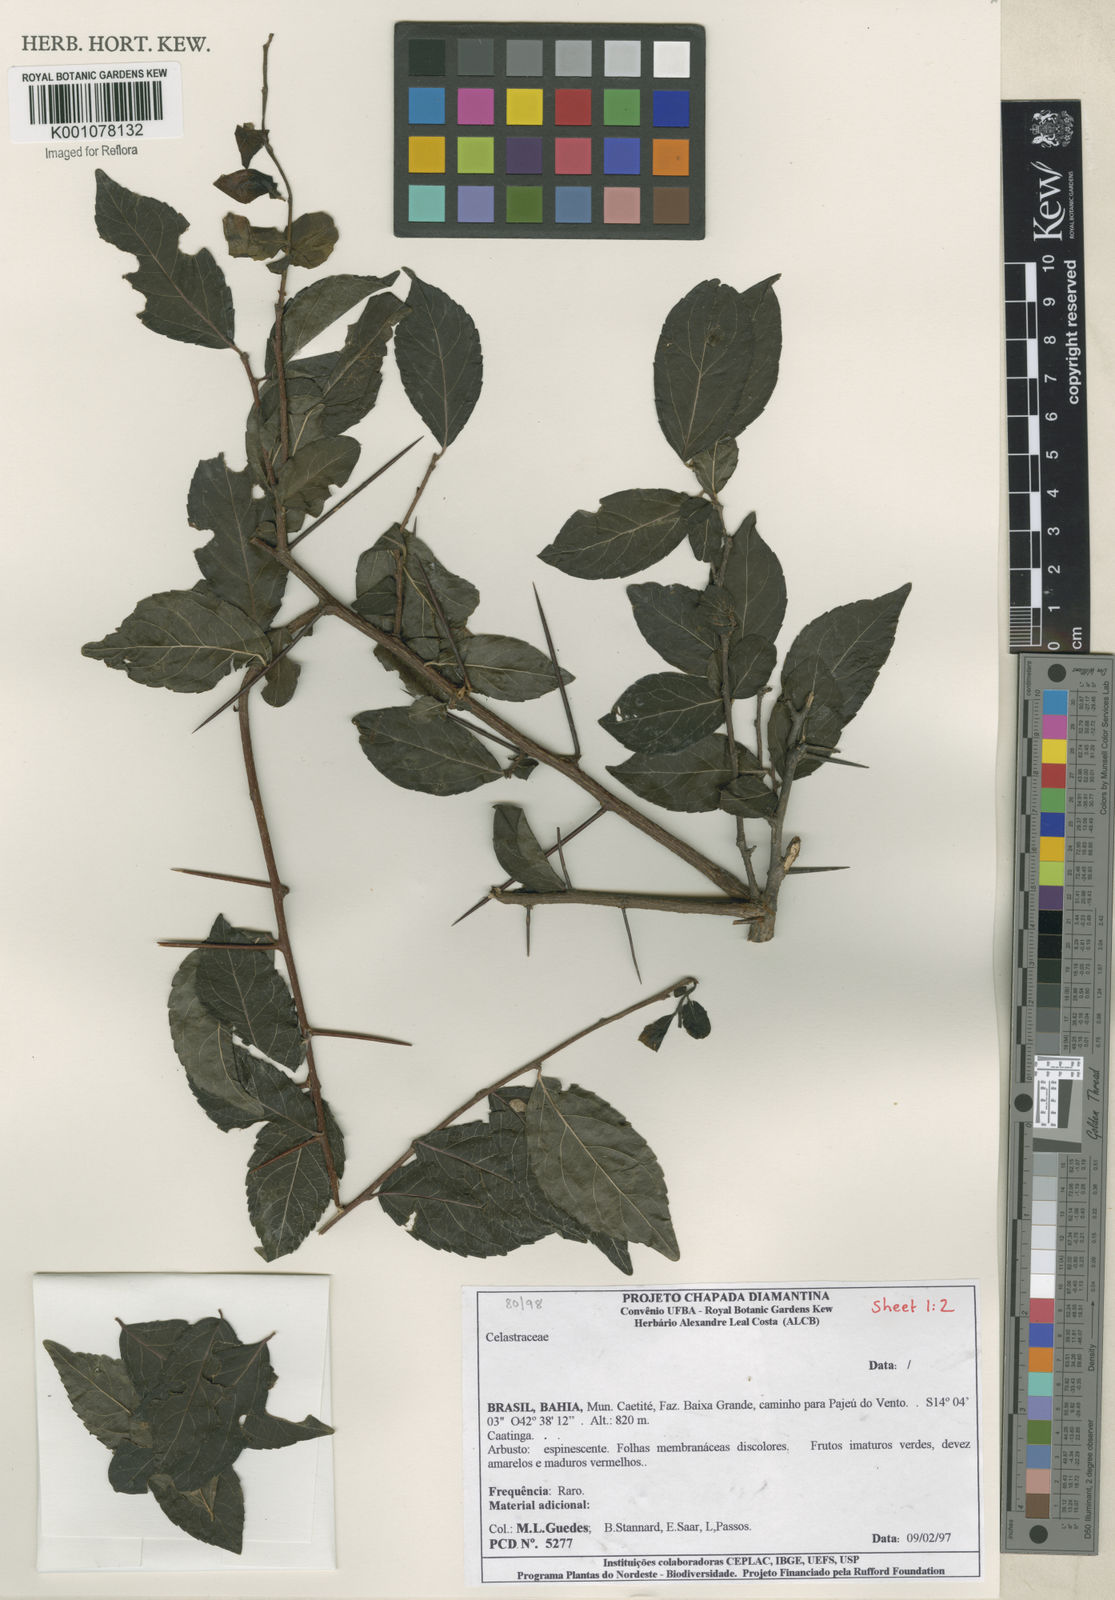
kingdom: Plantae
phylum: Tracheophyta
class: Magnoliopsida
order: Celastrales
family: Celastraceae
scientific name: Celastraceae
